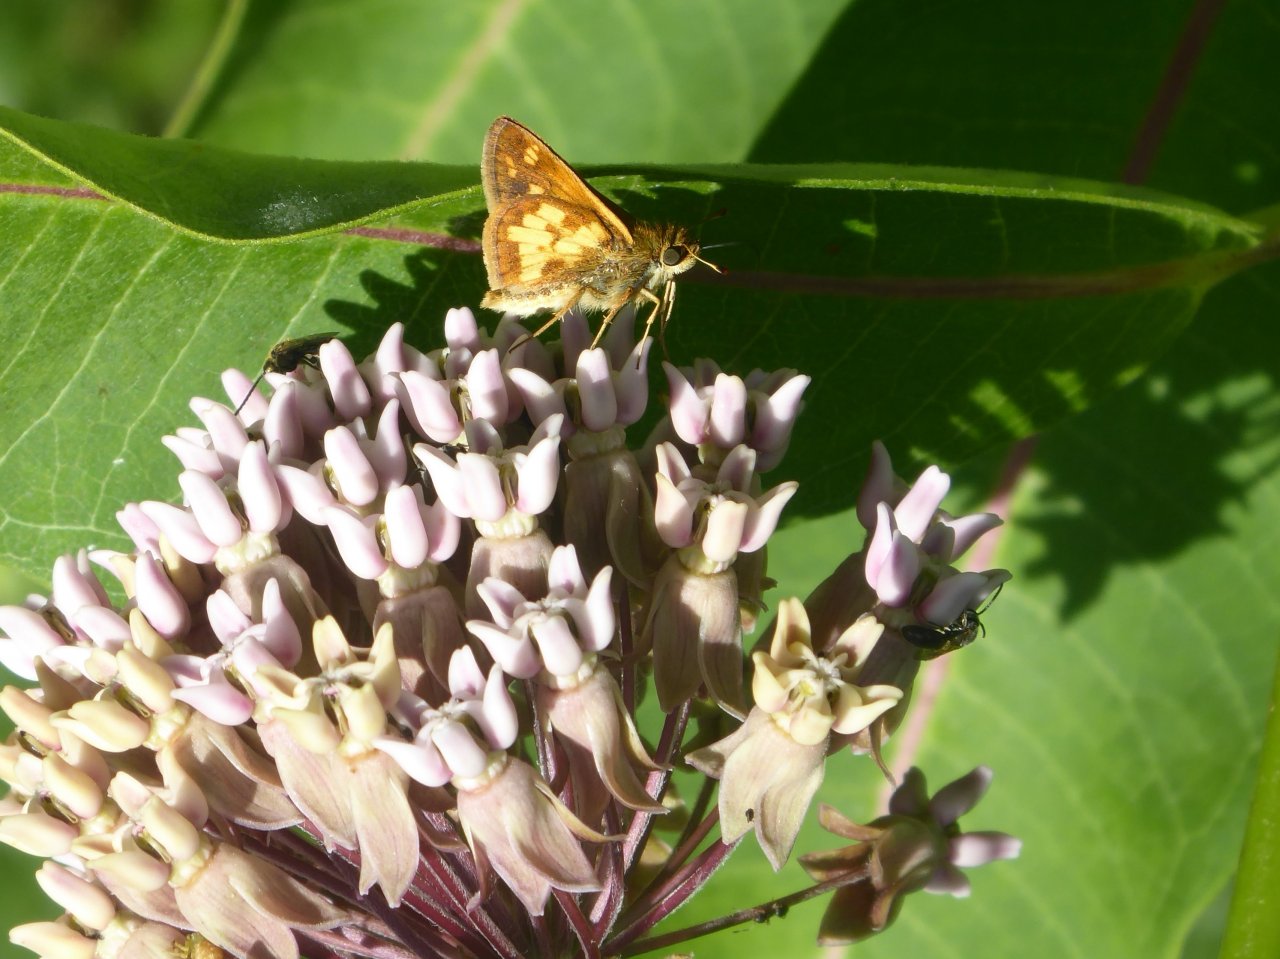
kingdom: Animalia
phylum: Arthropoda
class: Insecta
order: Lepidoptera
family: Hesperiidae
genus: Polites
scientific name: Polites coras
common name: Peck's Skipper
